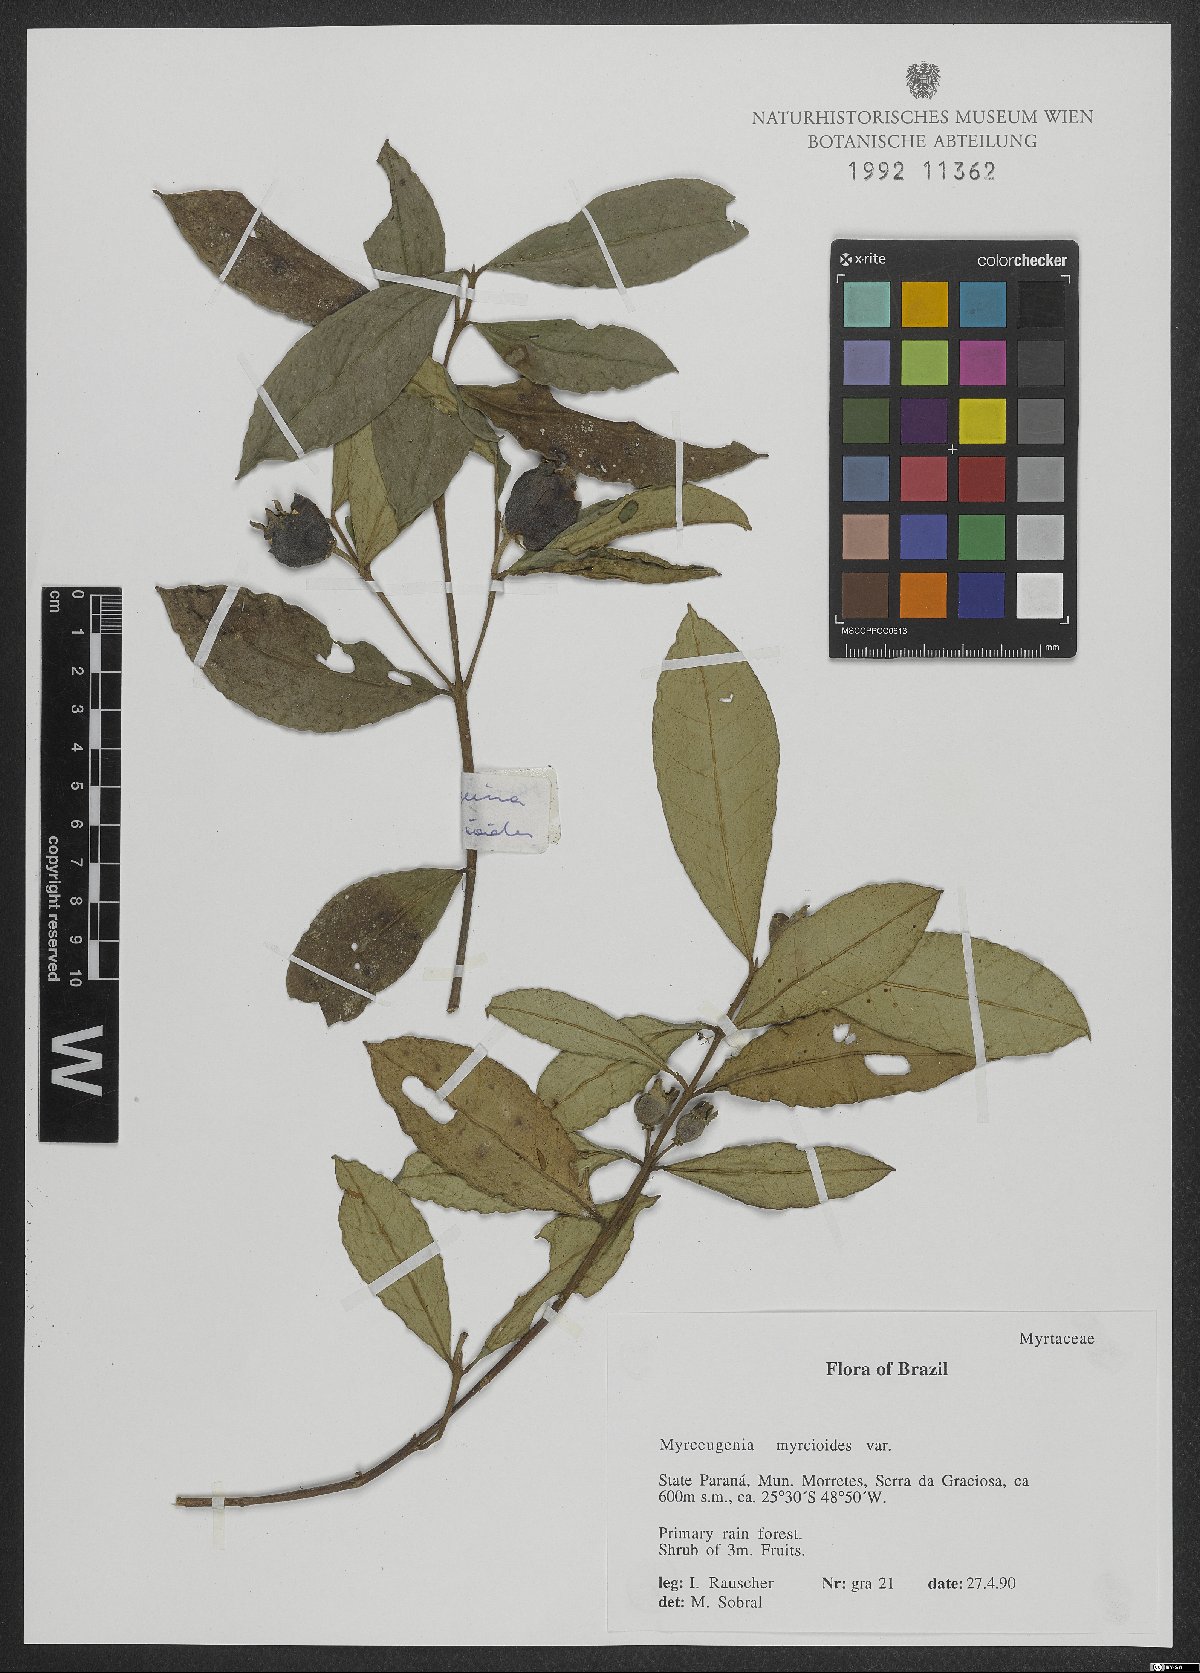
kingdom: Plantae
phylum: Tracheophyta
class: Magnoliopsida
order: Myrtales
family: Myrtaceae
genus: Myrceugenia
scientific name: Myrceugenia myrcioides
